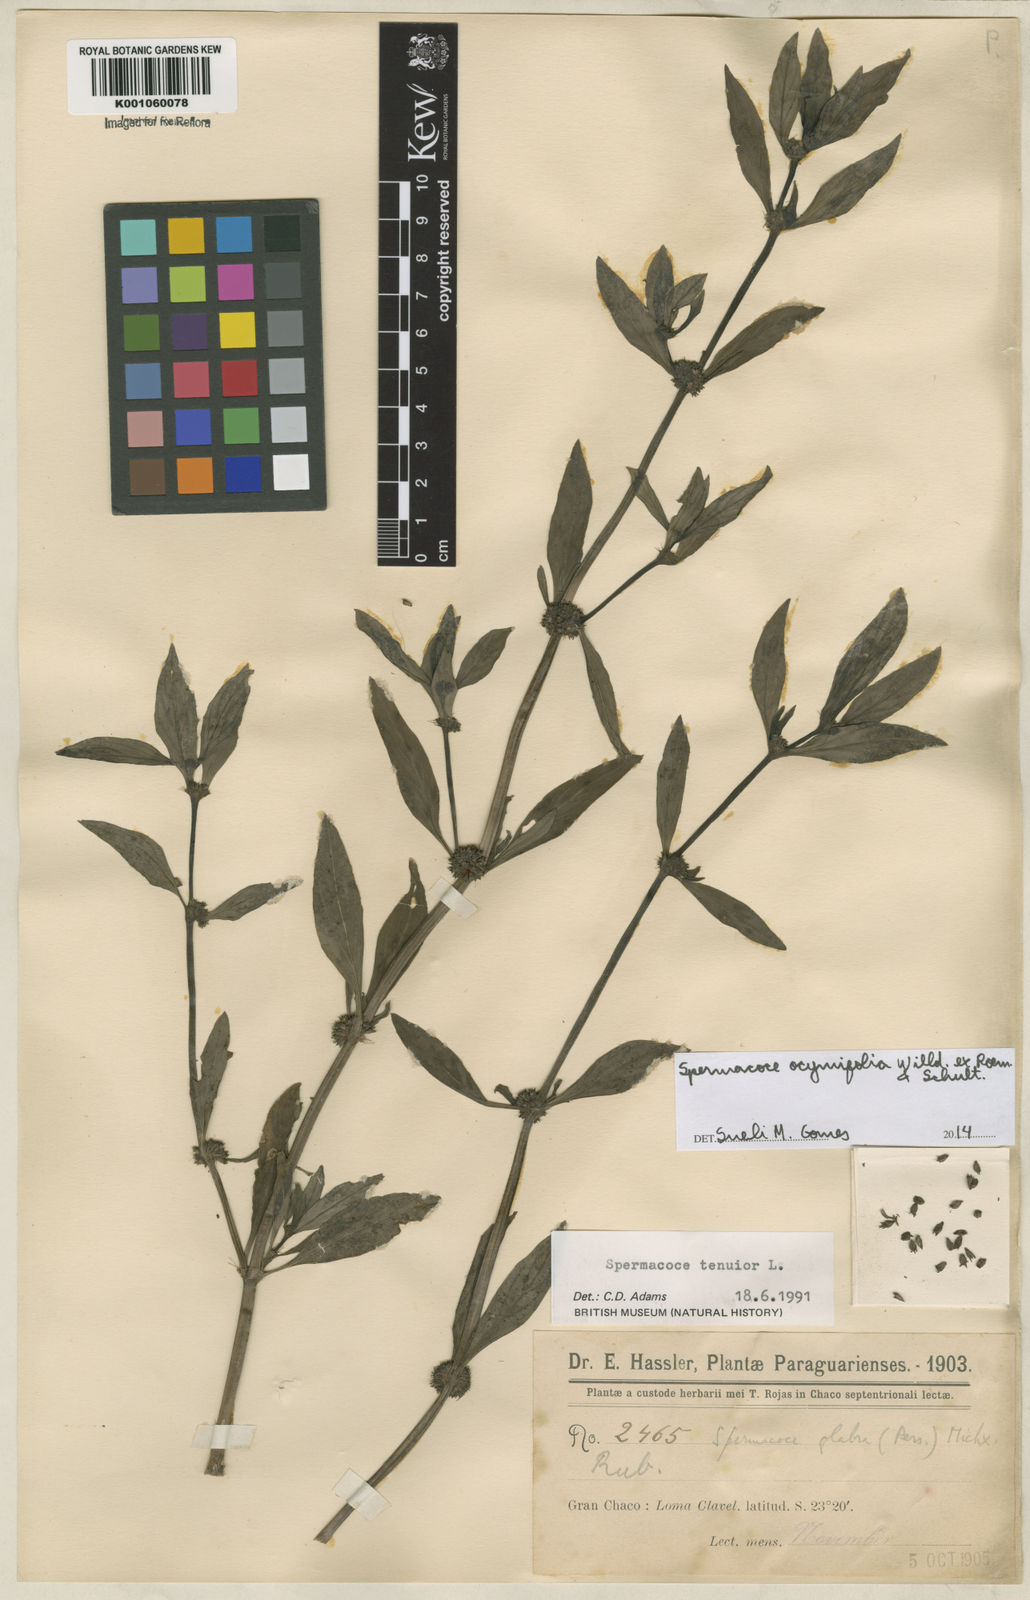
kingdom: Plantae
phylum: Tracheophyta
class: Magnoliopsida
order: Gentianales
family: Rubiaceae
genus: Spermacoce
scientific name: Spermacoce
